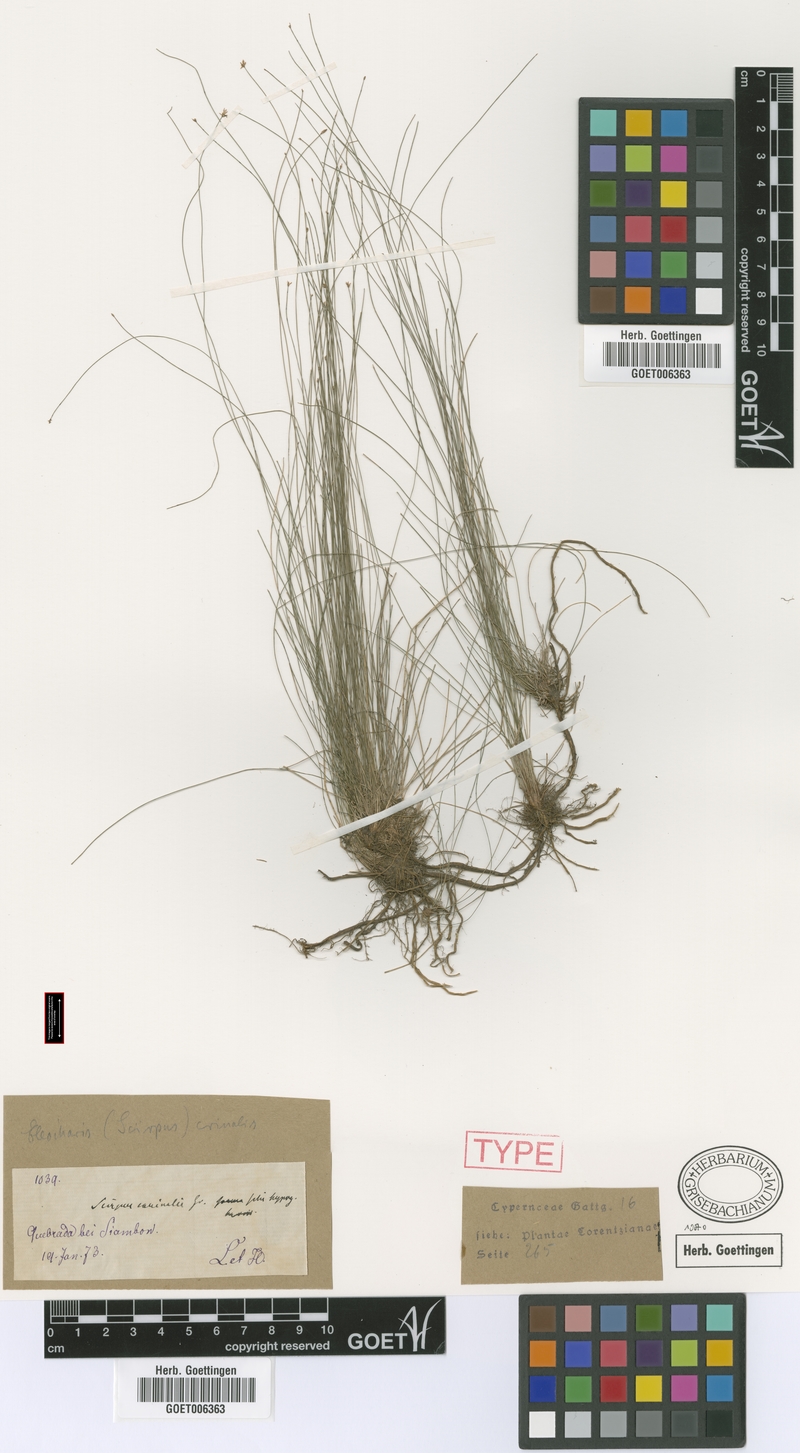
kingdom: Plantae
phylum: Tracheophyta
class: Liliopsida
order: Poales
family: Cyperaceae
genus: Eleocharis
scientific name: Eleocharis crinalis
